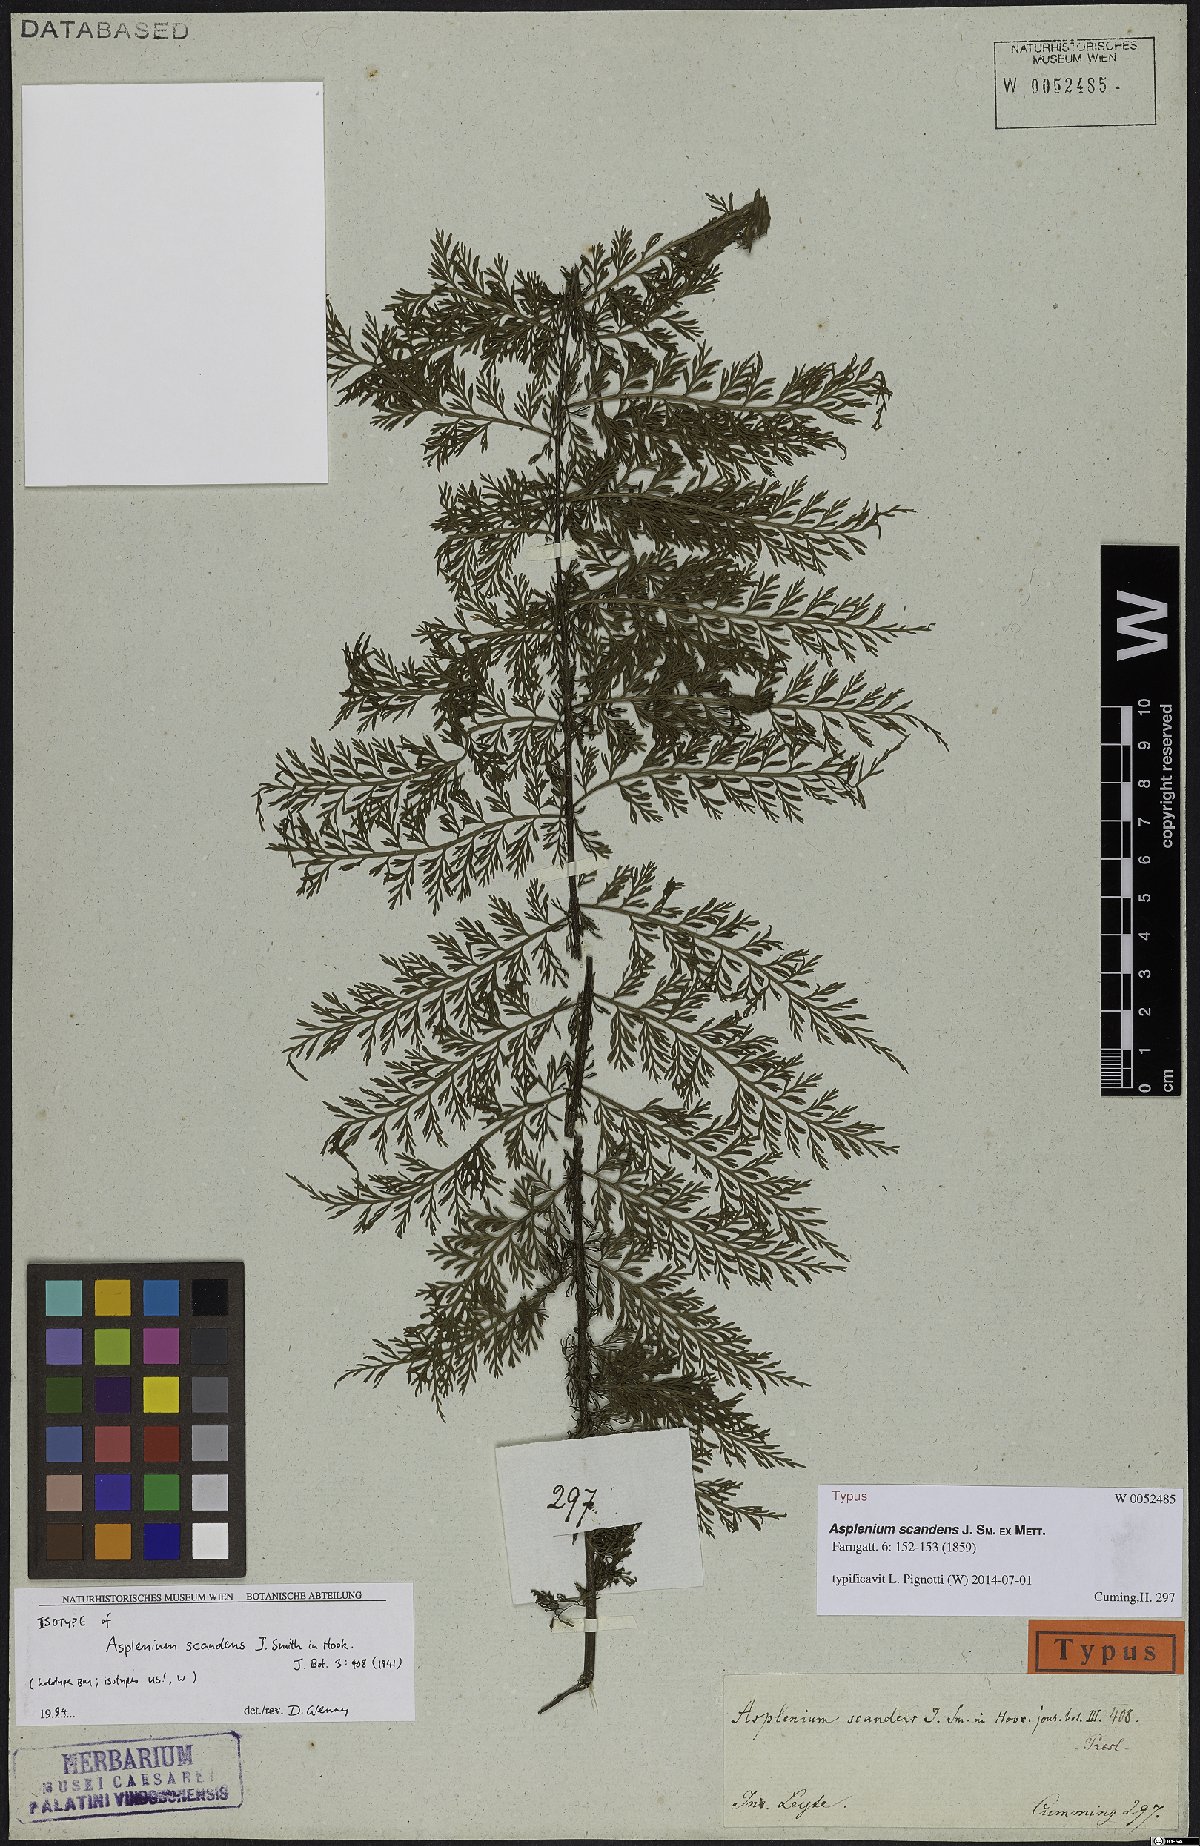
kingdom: Plantae
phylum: Tracheophyta
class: Polypodiopsida
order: Polypodiales
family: Aspleniaceae
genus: Asplenium
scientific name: Asplenium scandens
